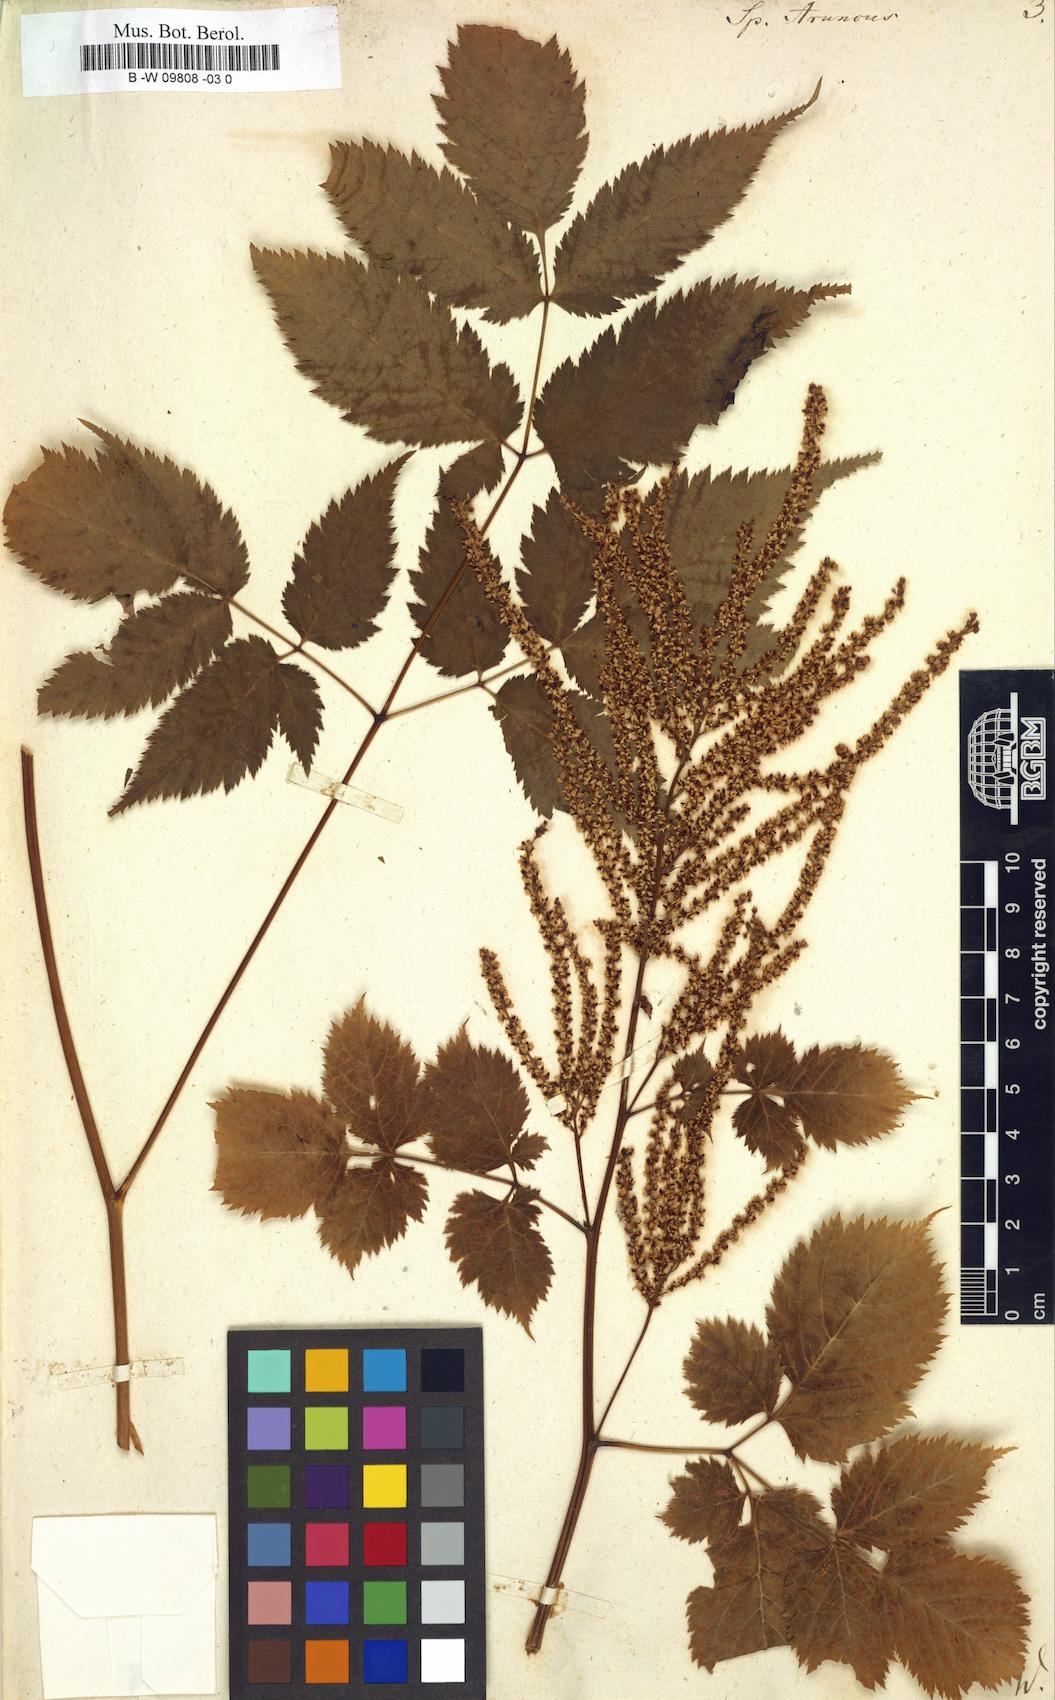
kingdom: Plantae
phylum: Tracheophyta
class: Magnoliopsida
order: Rosales
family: Rosaceae
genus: Aruncus
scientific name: Aruncus dioicus
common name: Buck's-beard
